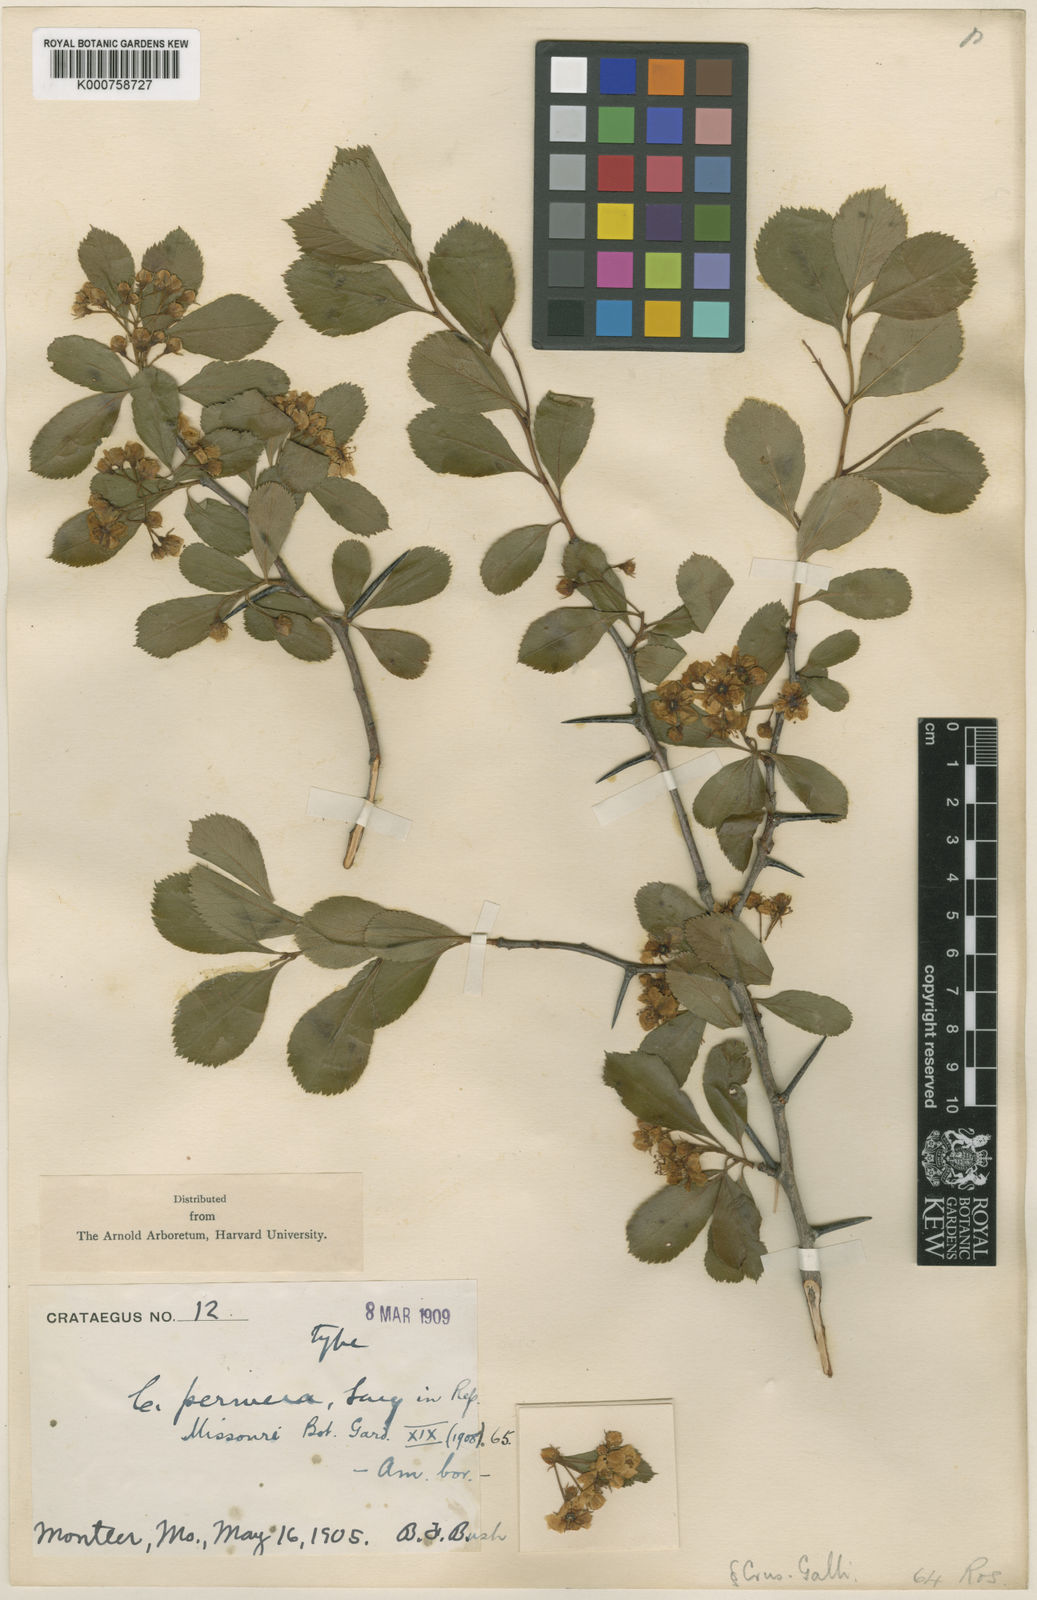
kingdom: Plantae
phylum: Tracheophyta
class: Magnoliopsida
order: Rosales
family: Rosaceae
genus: Crataegus
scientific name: Crataegus permera
